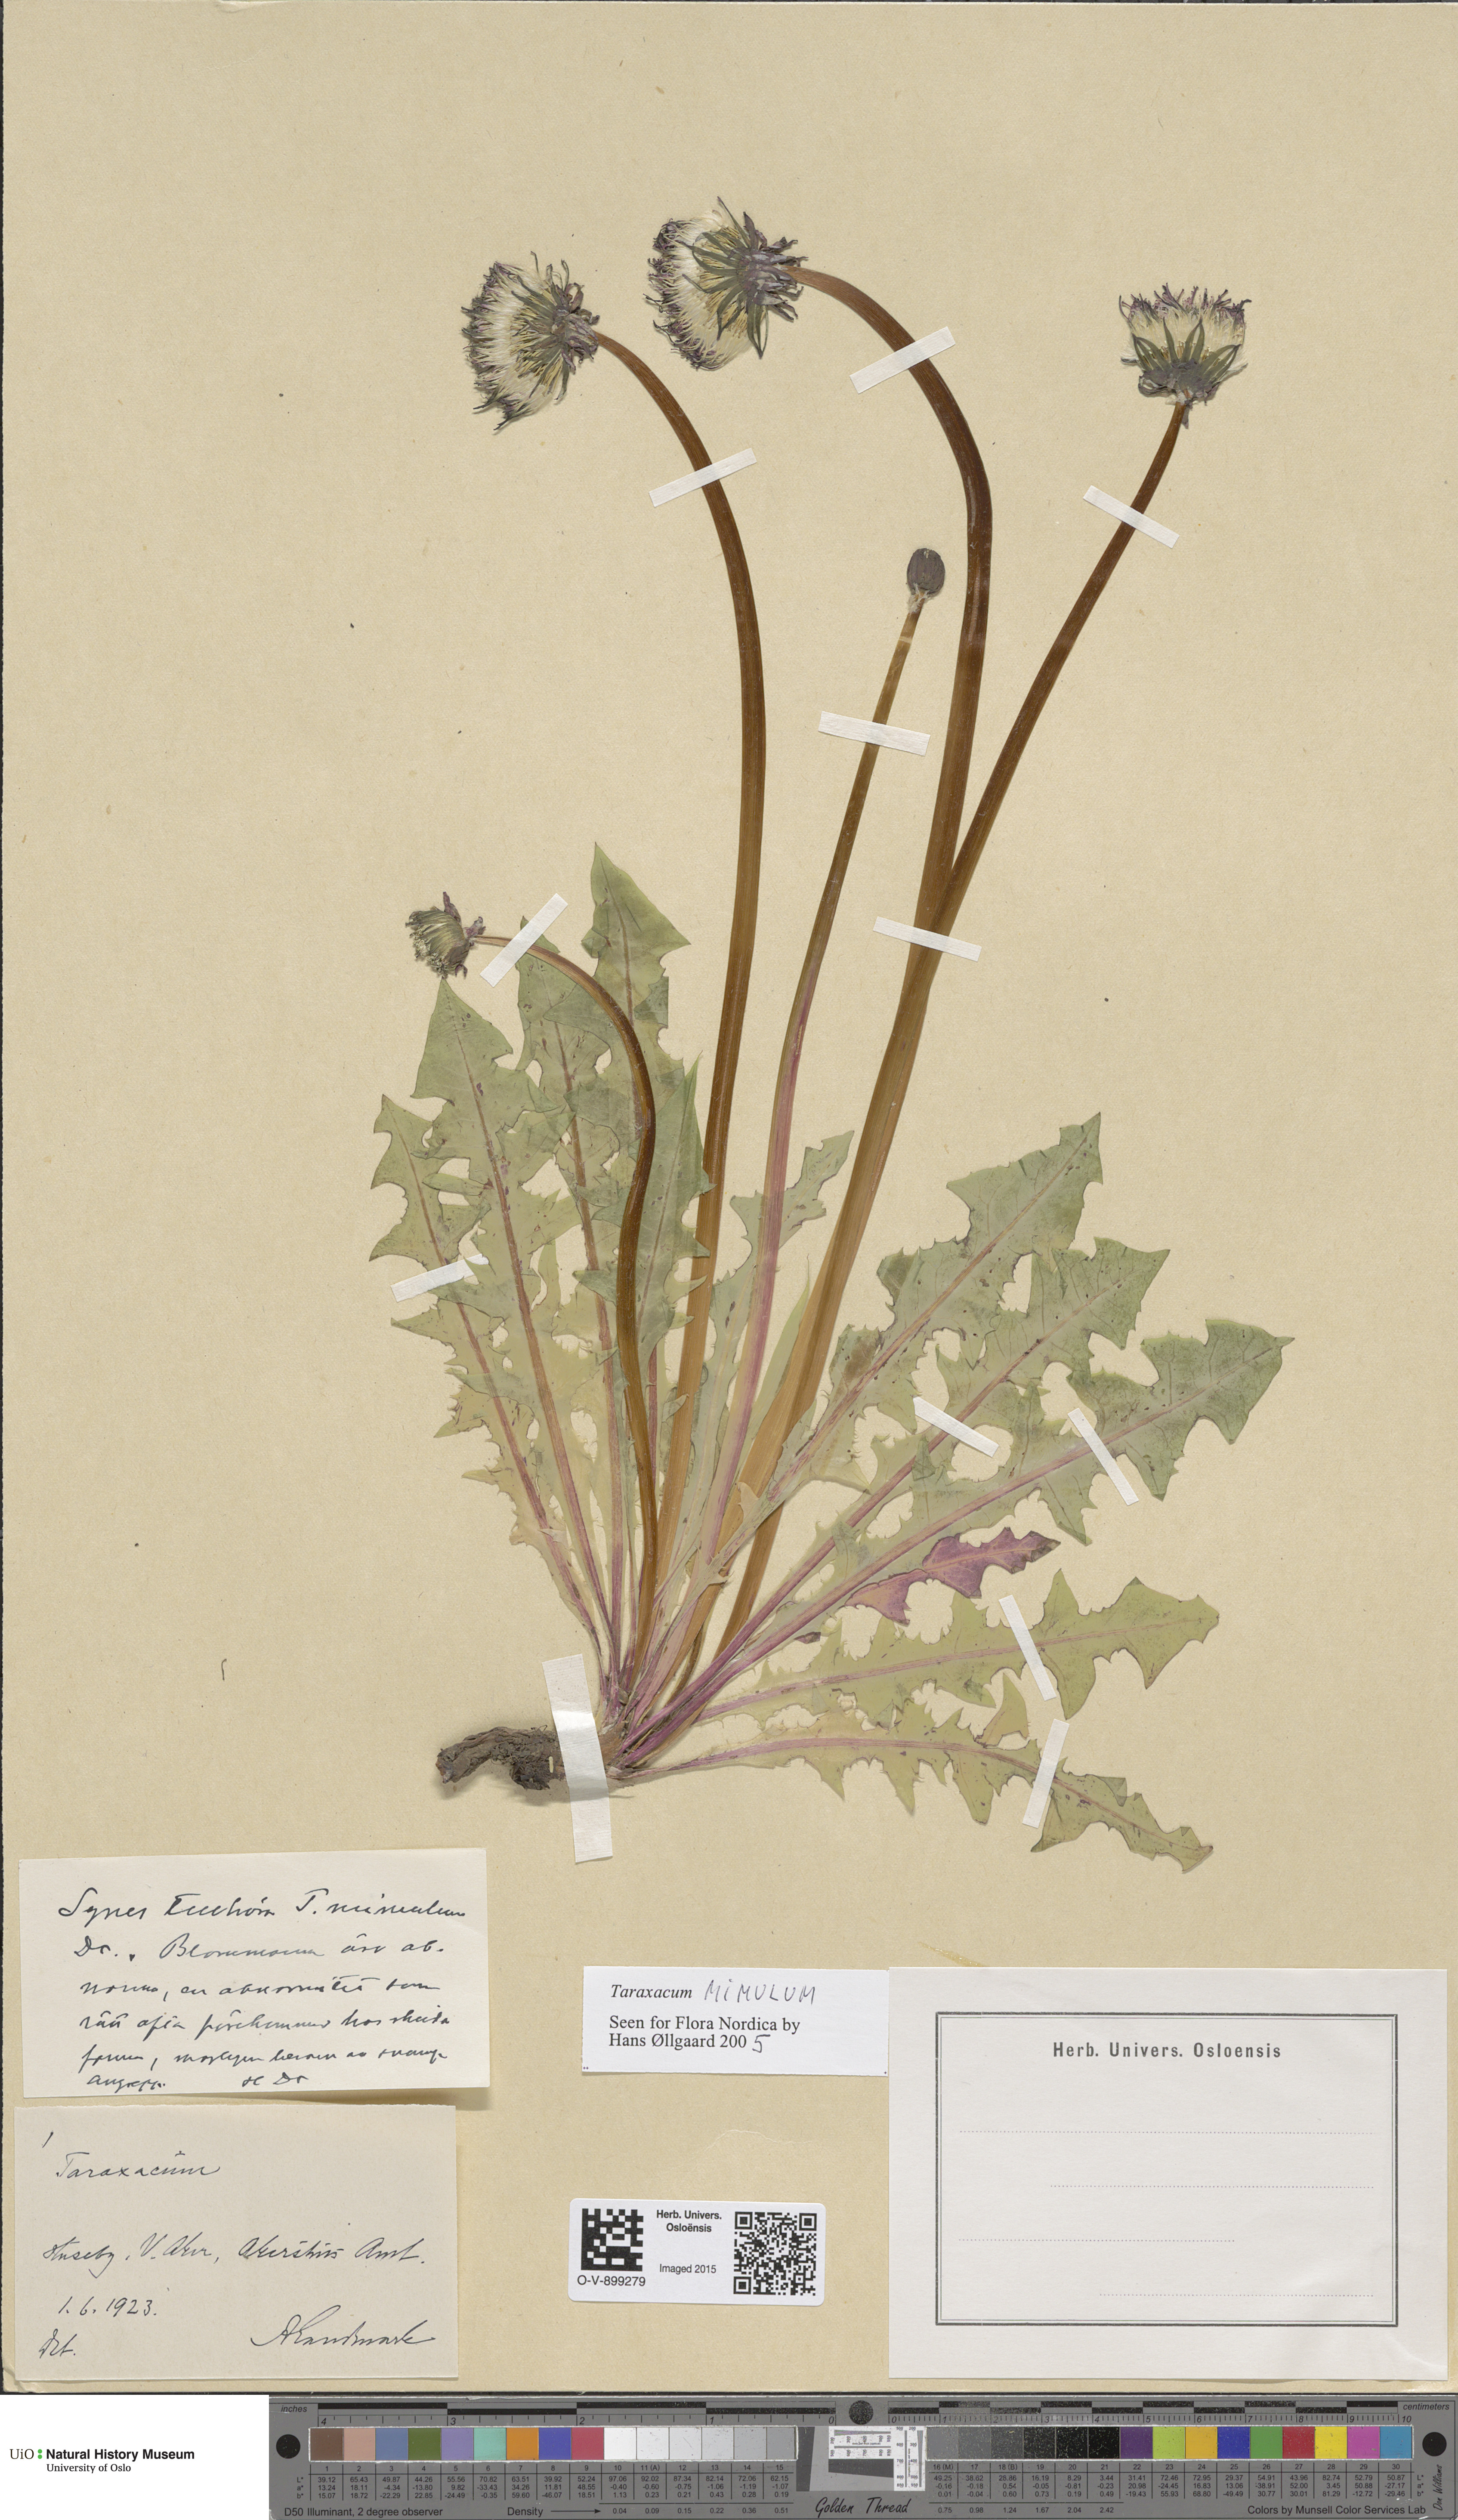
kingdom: Plantae
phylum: Tracheophyta
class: Magnoliopsida
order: Asterales
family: Asteraceae
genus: Taraxacum
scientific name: Taraxacum mimulum
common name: Sharp-lobed dandelion
